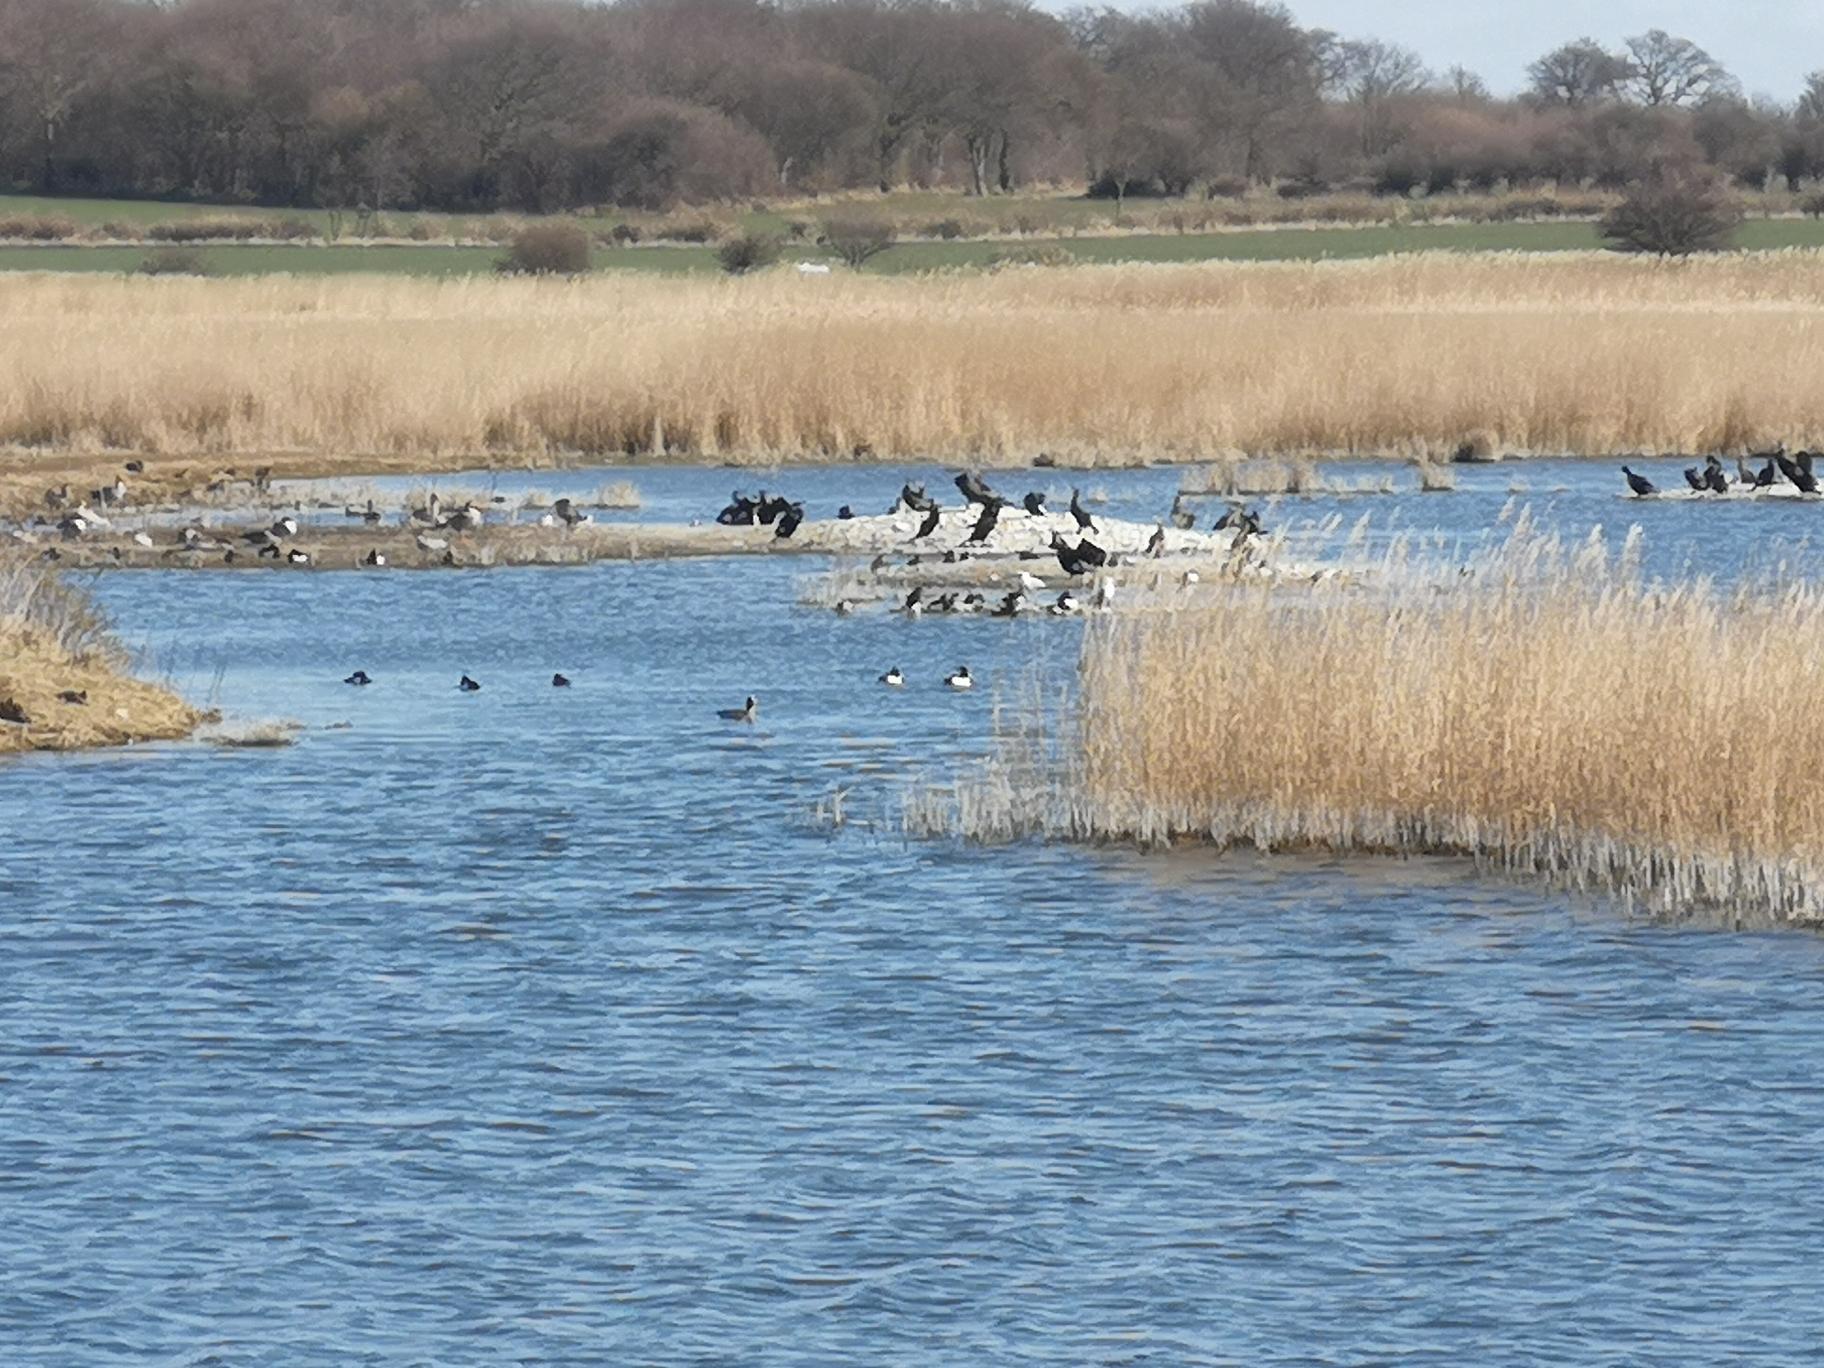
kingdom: Animalia
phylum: Chordata
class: Aves
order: Suliformes
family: Phalacrocoracidae
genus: Phalacrocorax
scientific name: Phalacrocorax carbo
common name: Skarv
